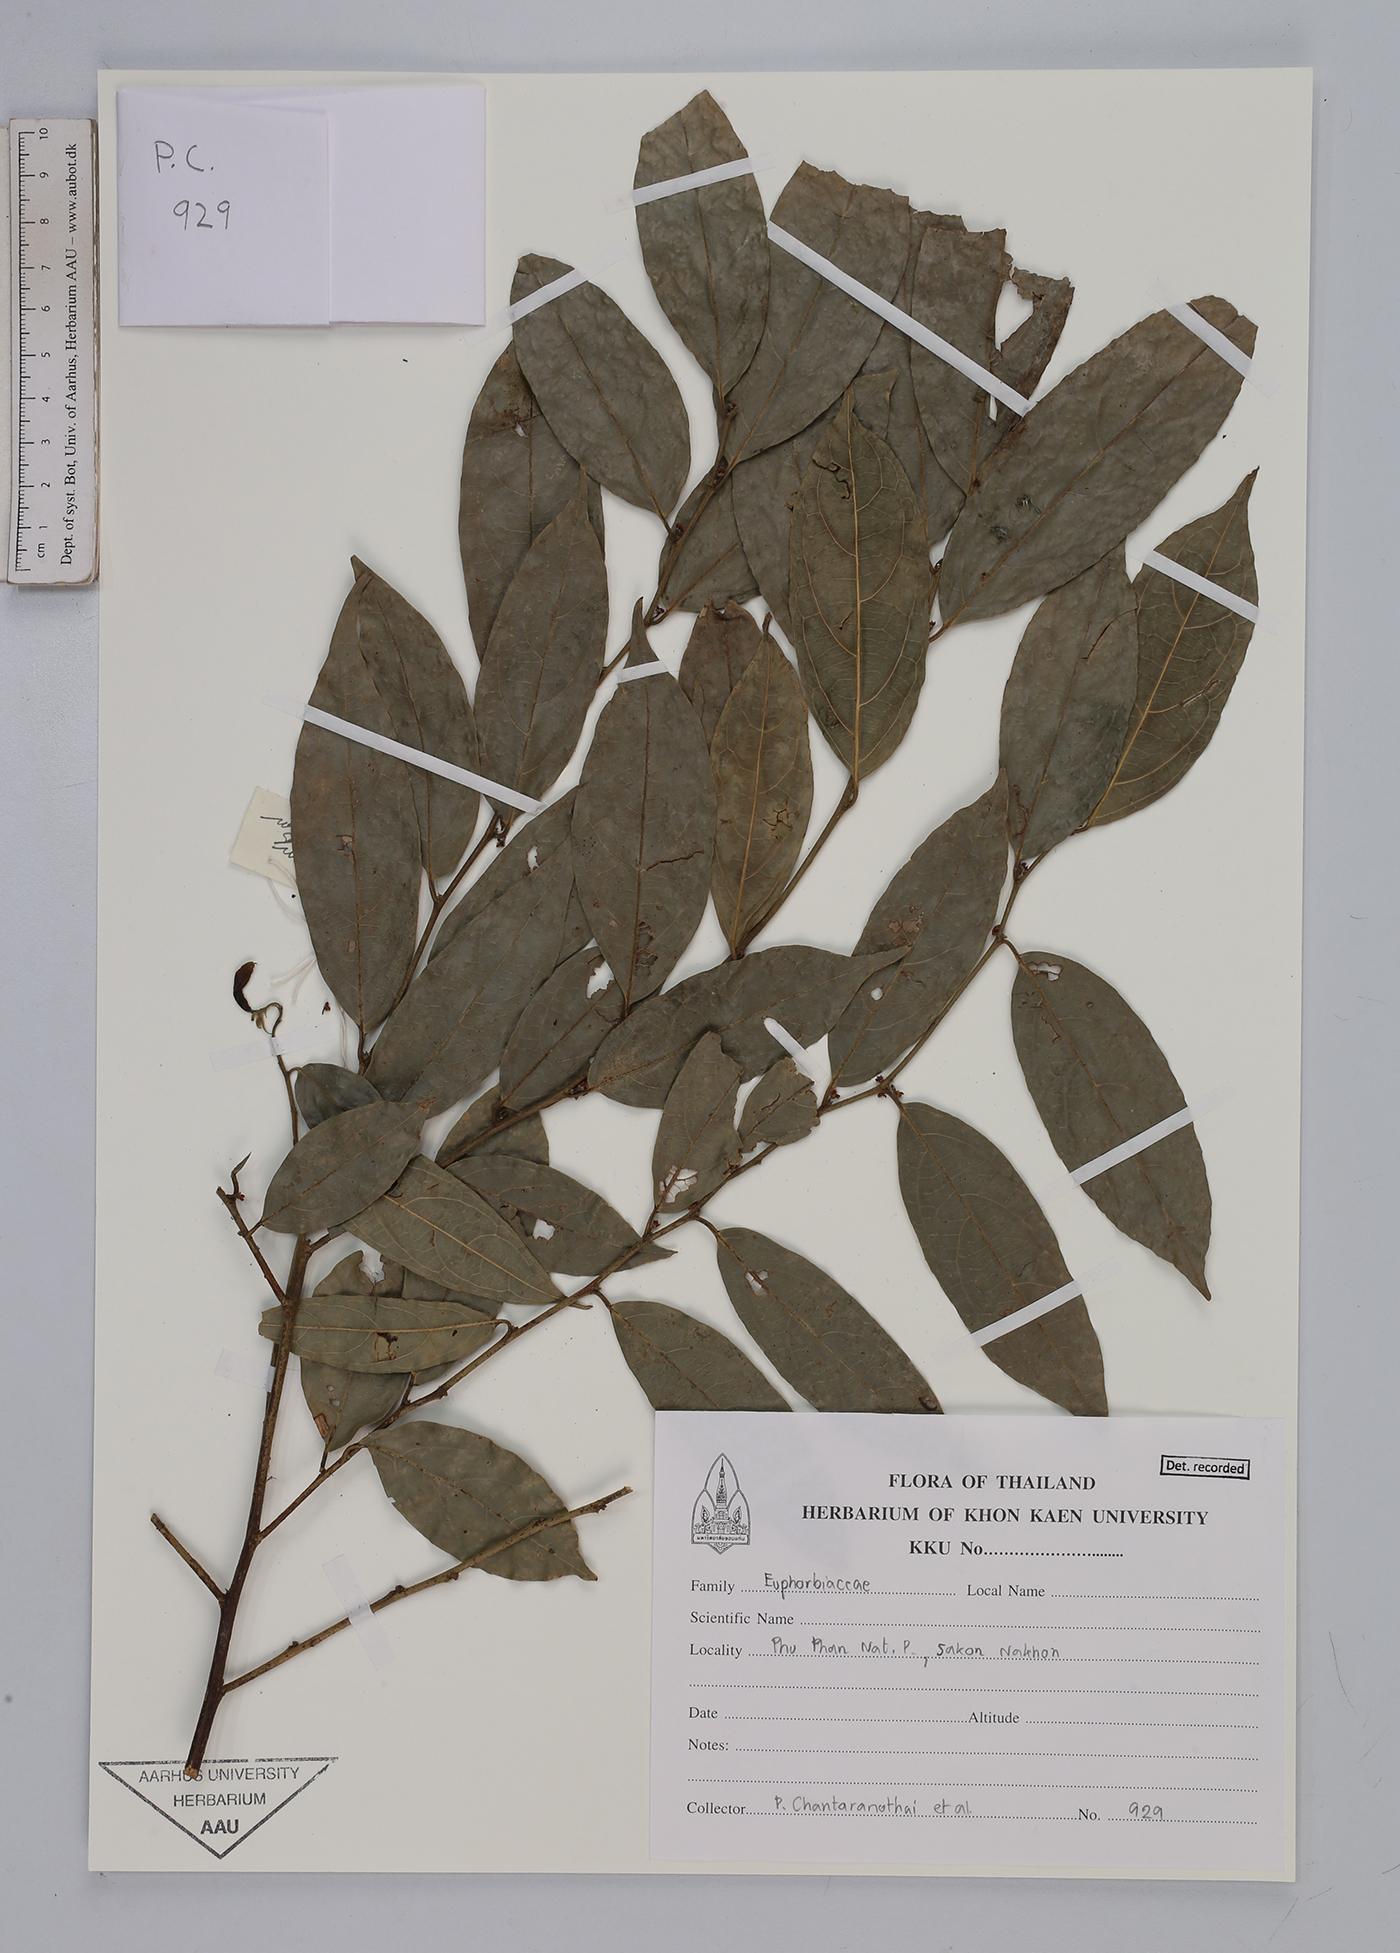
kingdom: Plantae
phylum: Tracheophyta
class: Magnoliopsida
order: Malpighiales
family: Euphorbiaceae
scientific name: Euphorbiaceae
